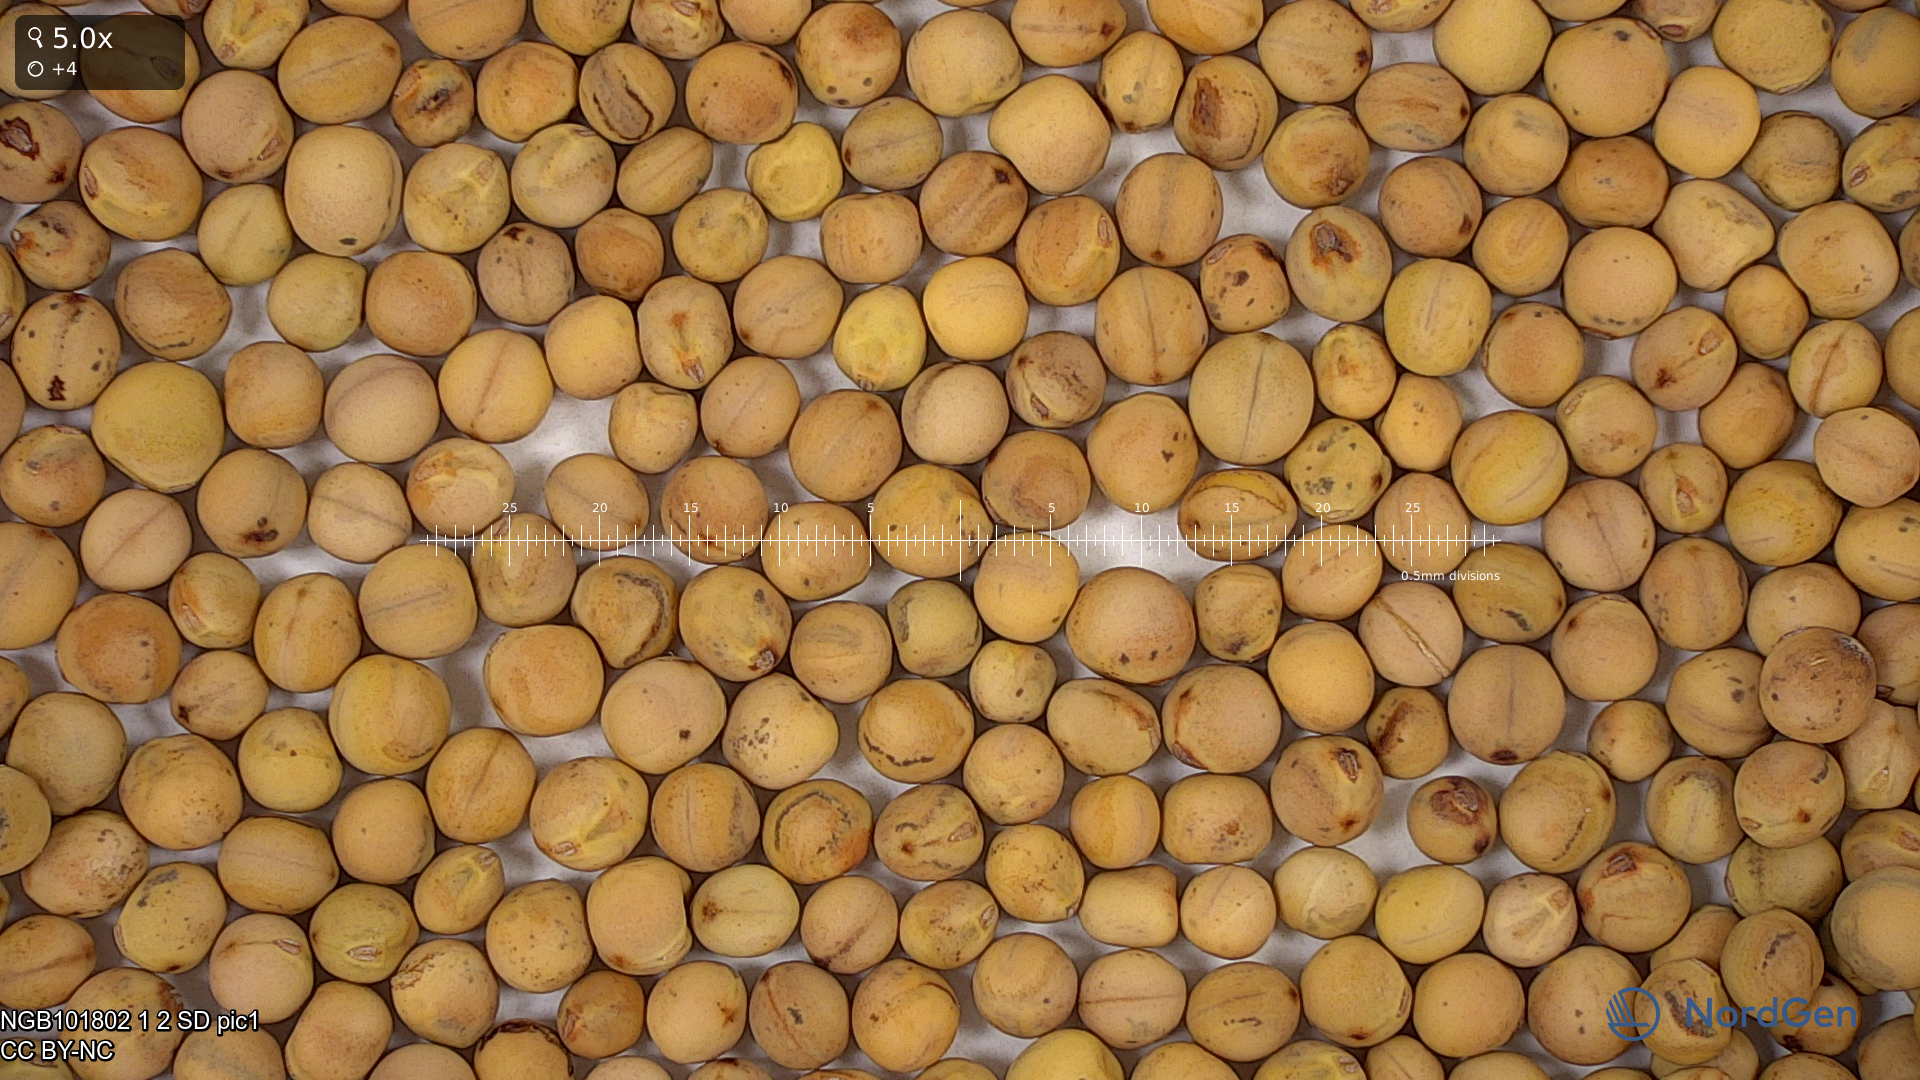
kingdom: Plantae
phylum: Tracheophyta
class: Magnoliopsida
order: Fabales
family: Fabaceae
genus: Lathyrus
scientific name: Lathyrus oleraceus
